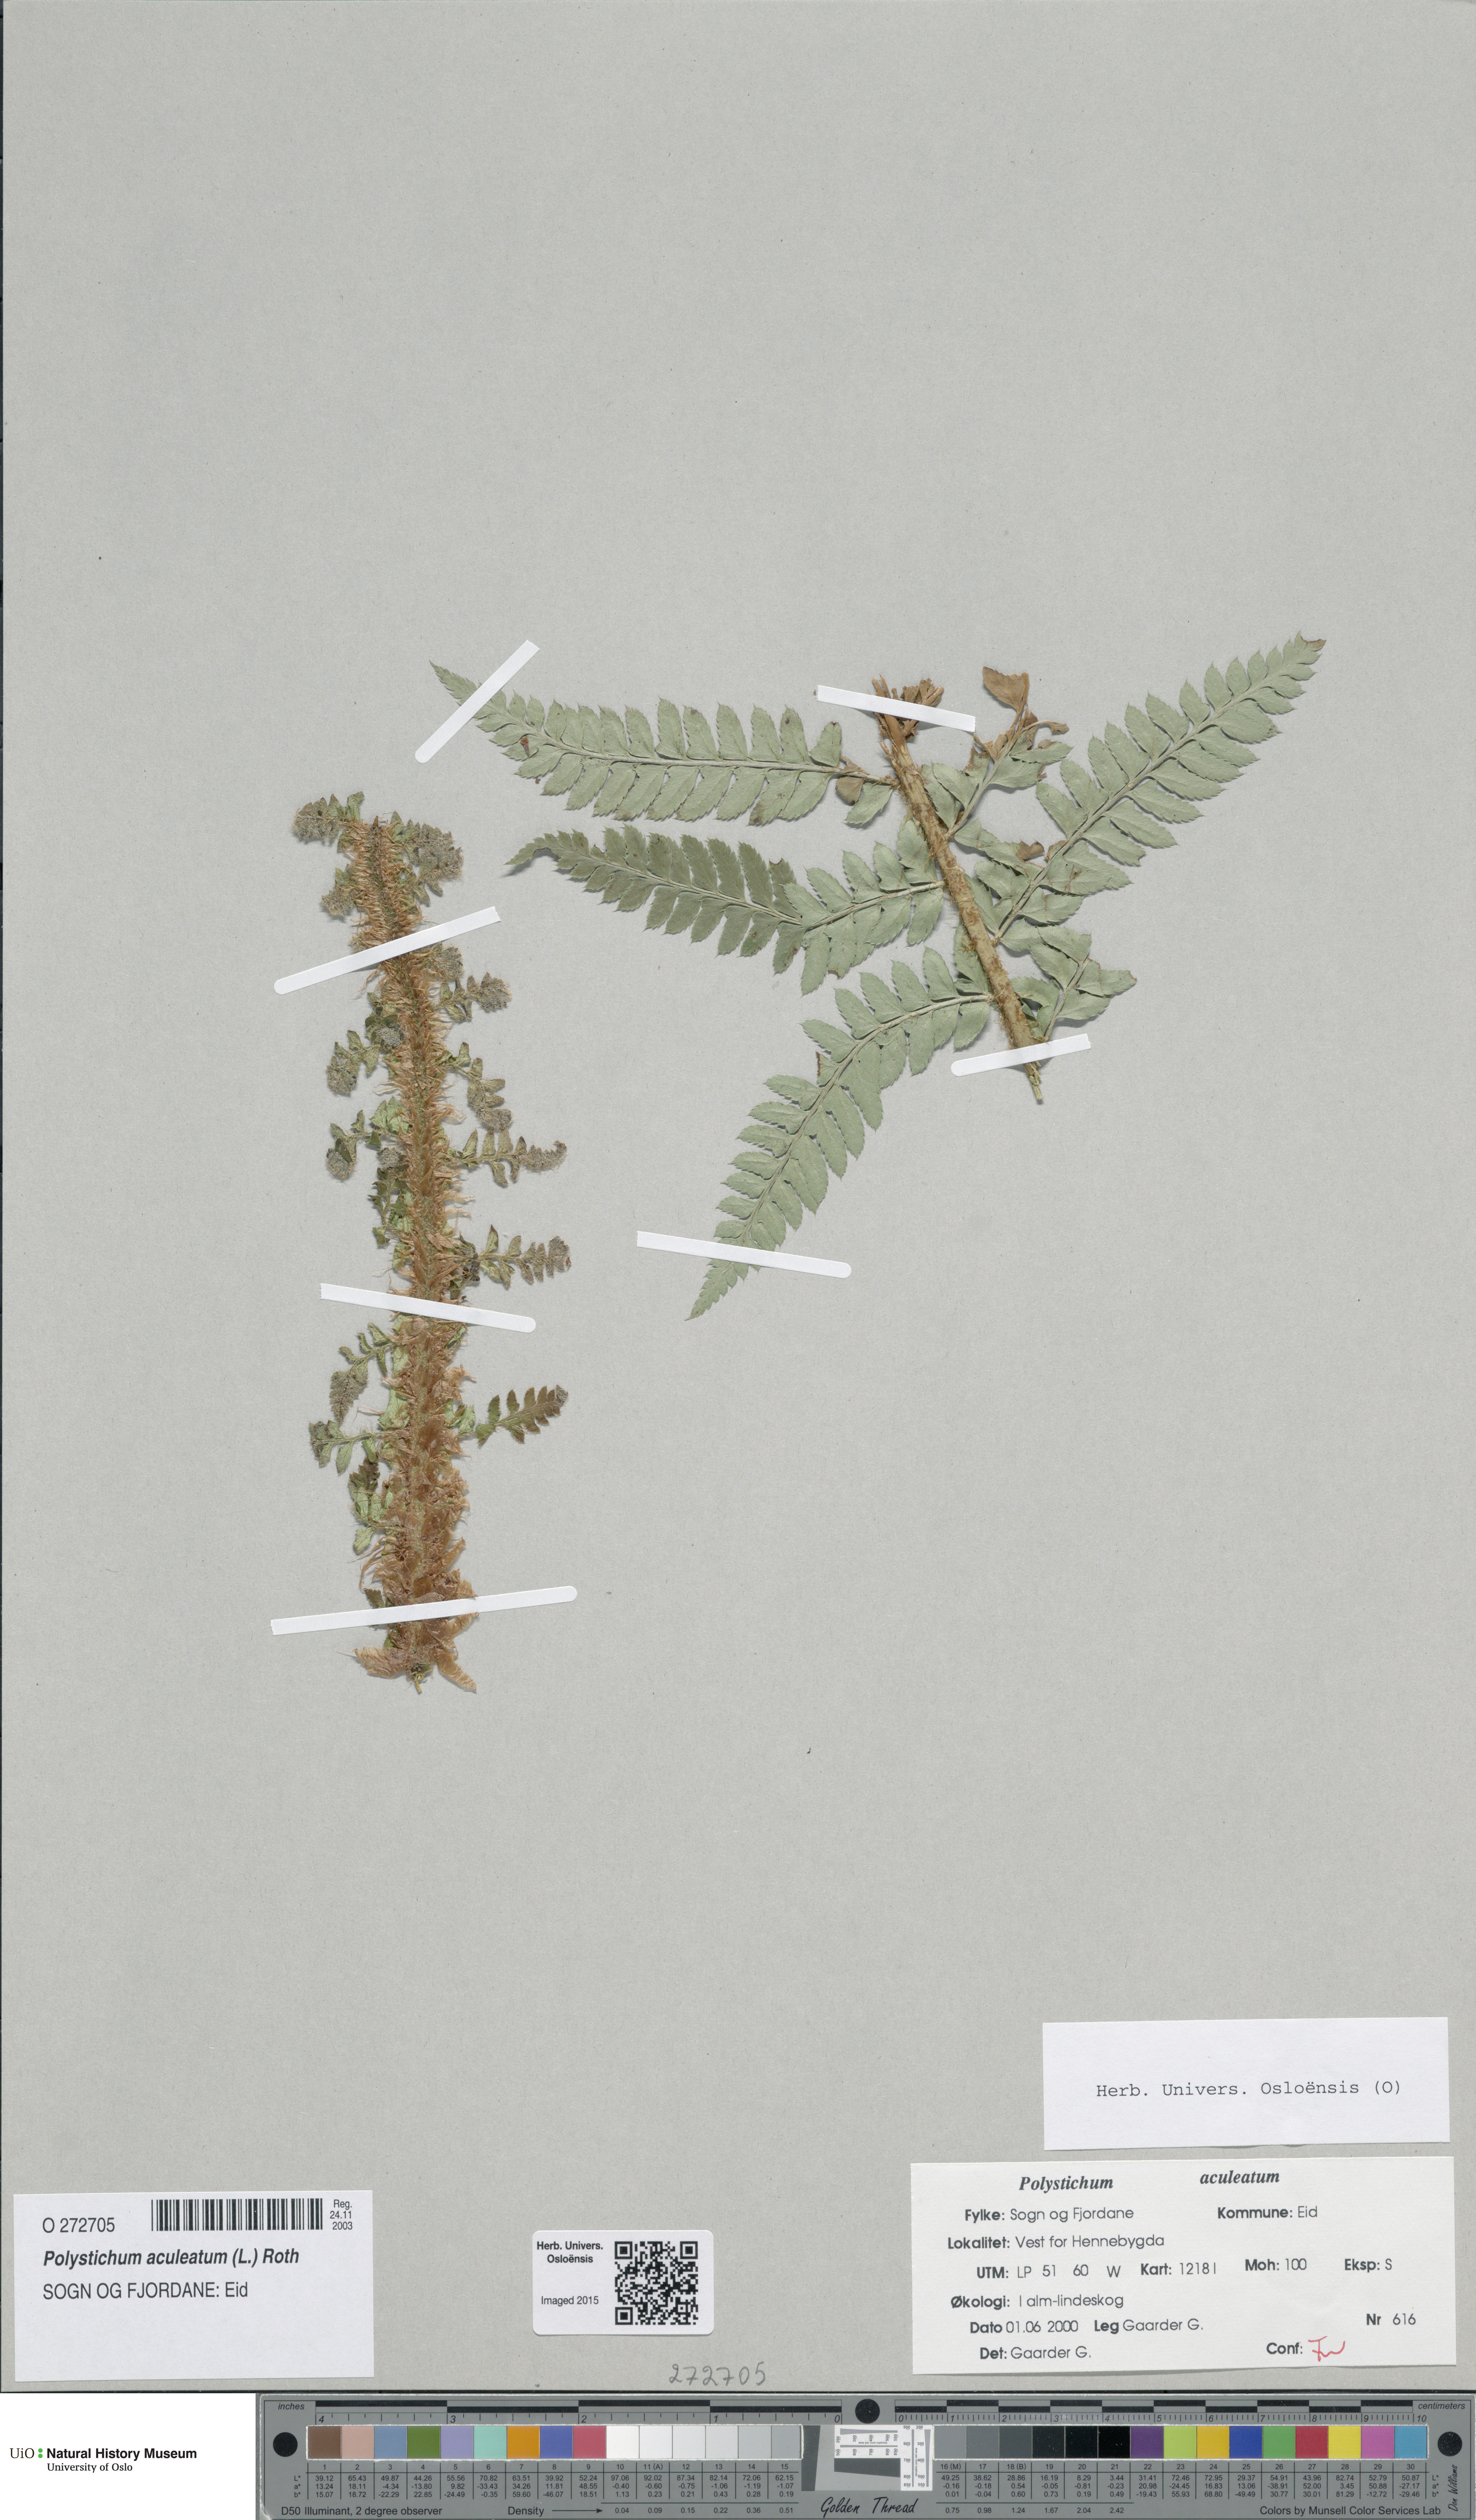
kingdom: Plantae
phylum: Tracheophyta
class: Polypodiopsida
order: Polypodiales
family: Dryopteridaceae
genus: Polystichum
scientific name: Polystichum aculeatum
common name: Hard shield-fern
